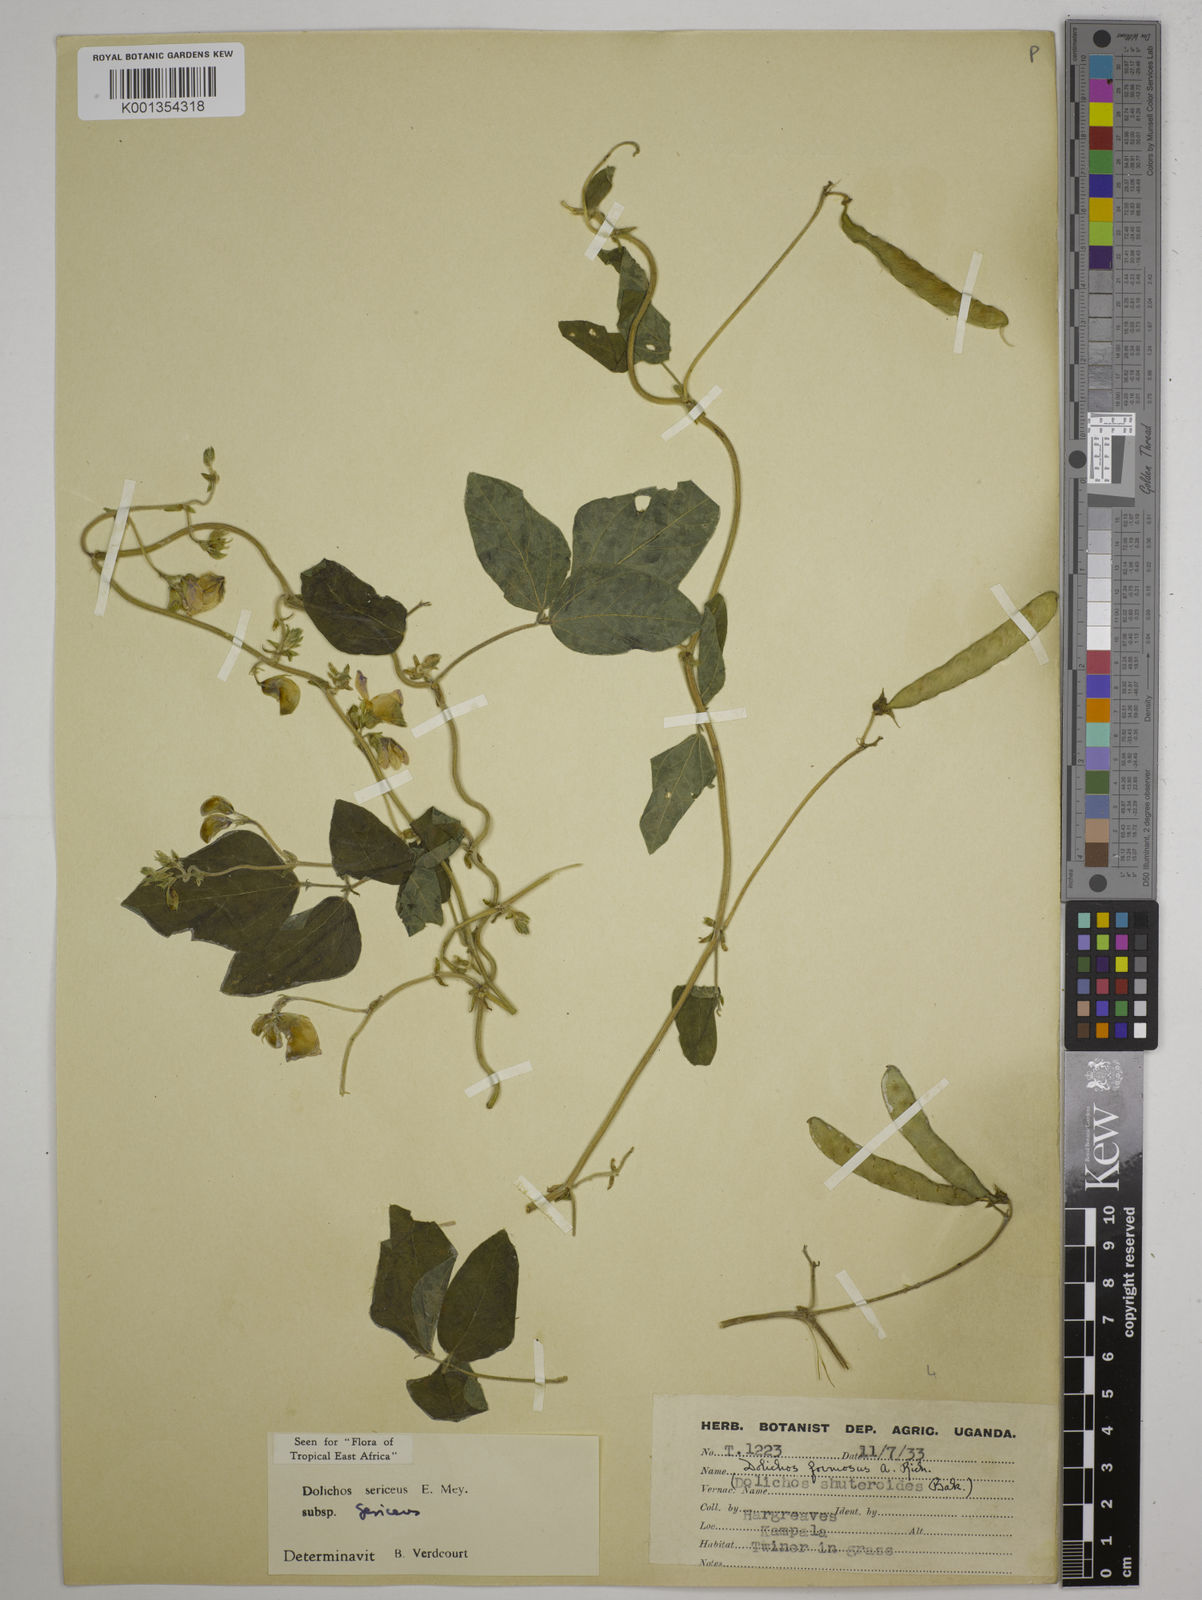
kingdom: Plantae
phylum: Tracheophyta
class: Magnoliopsida
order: Fabales
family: Fabaceae
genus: Dolichos
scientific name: Dolichos sericeus
